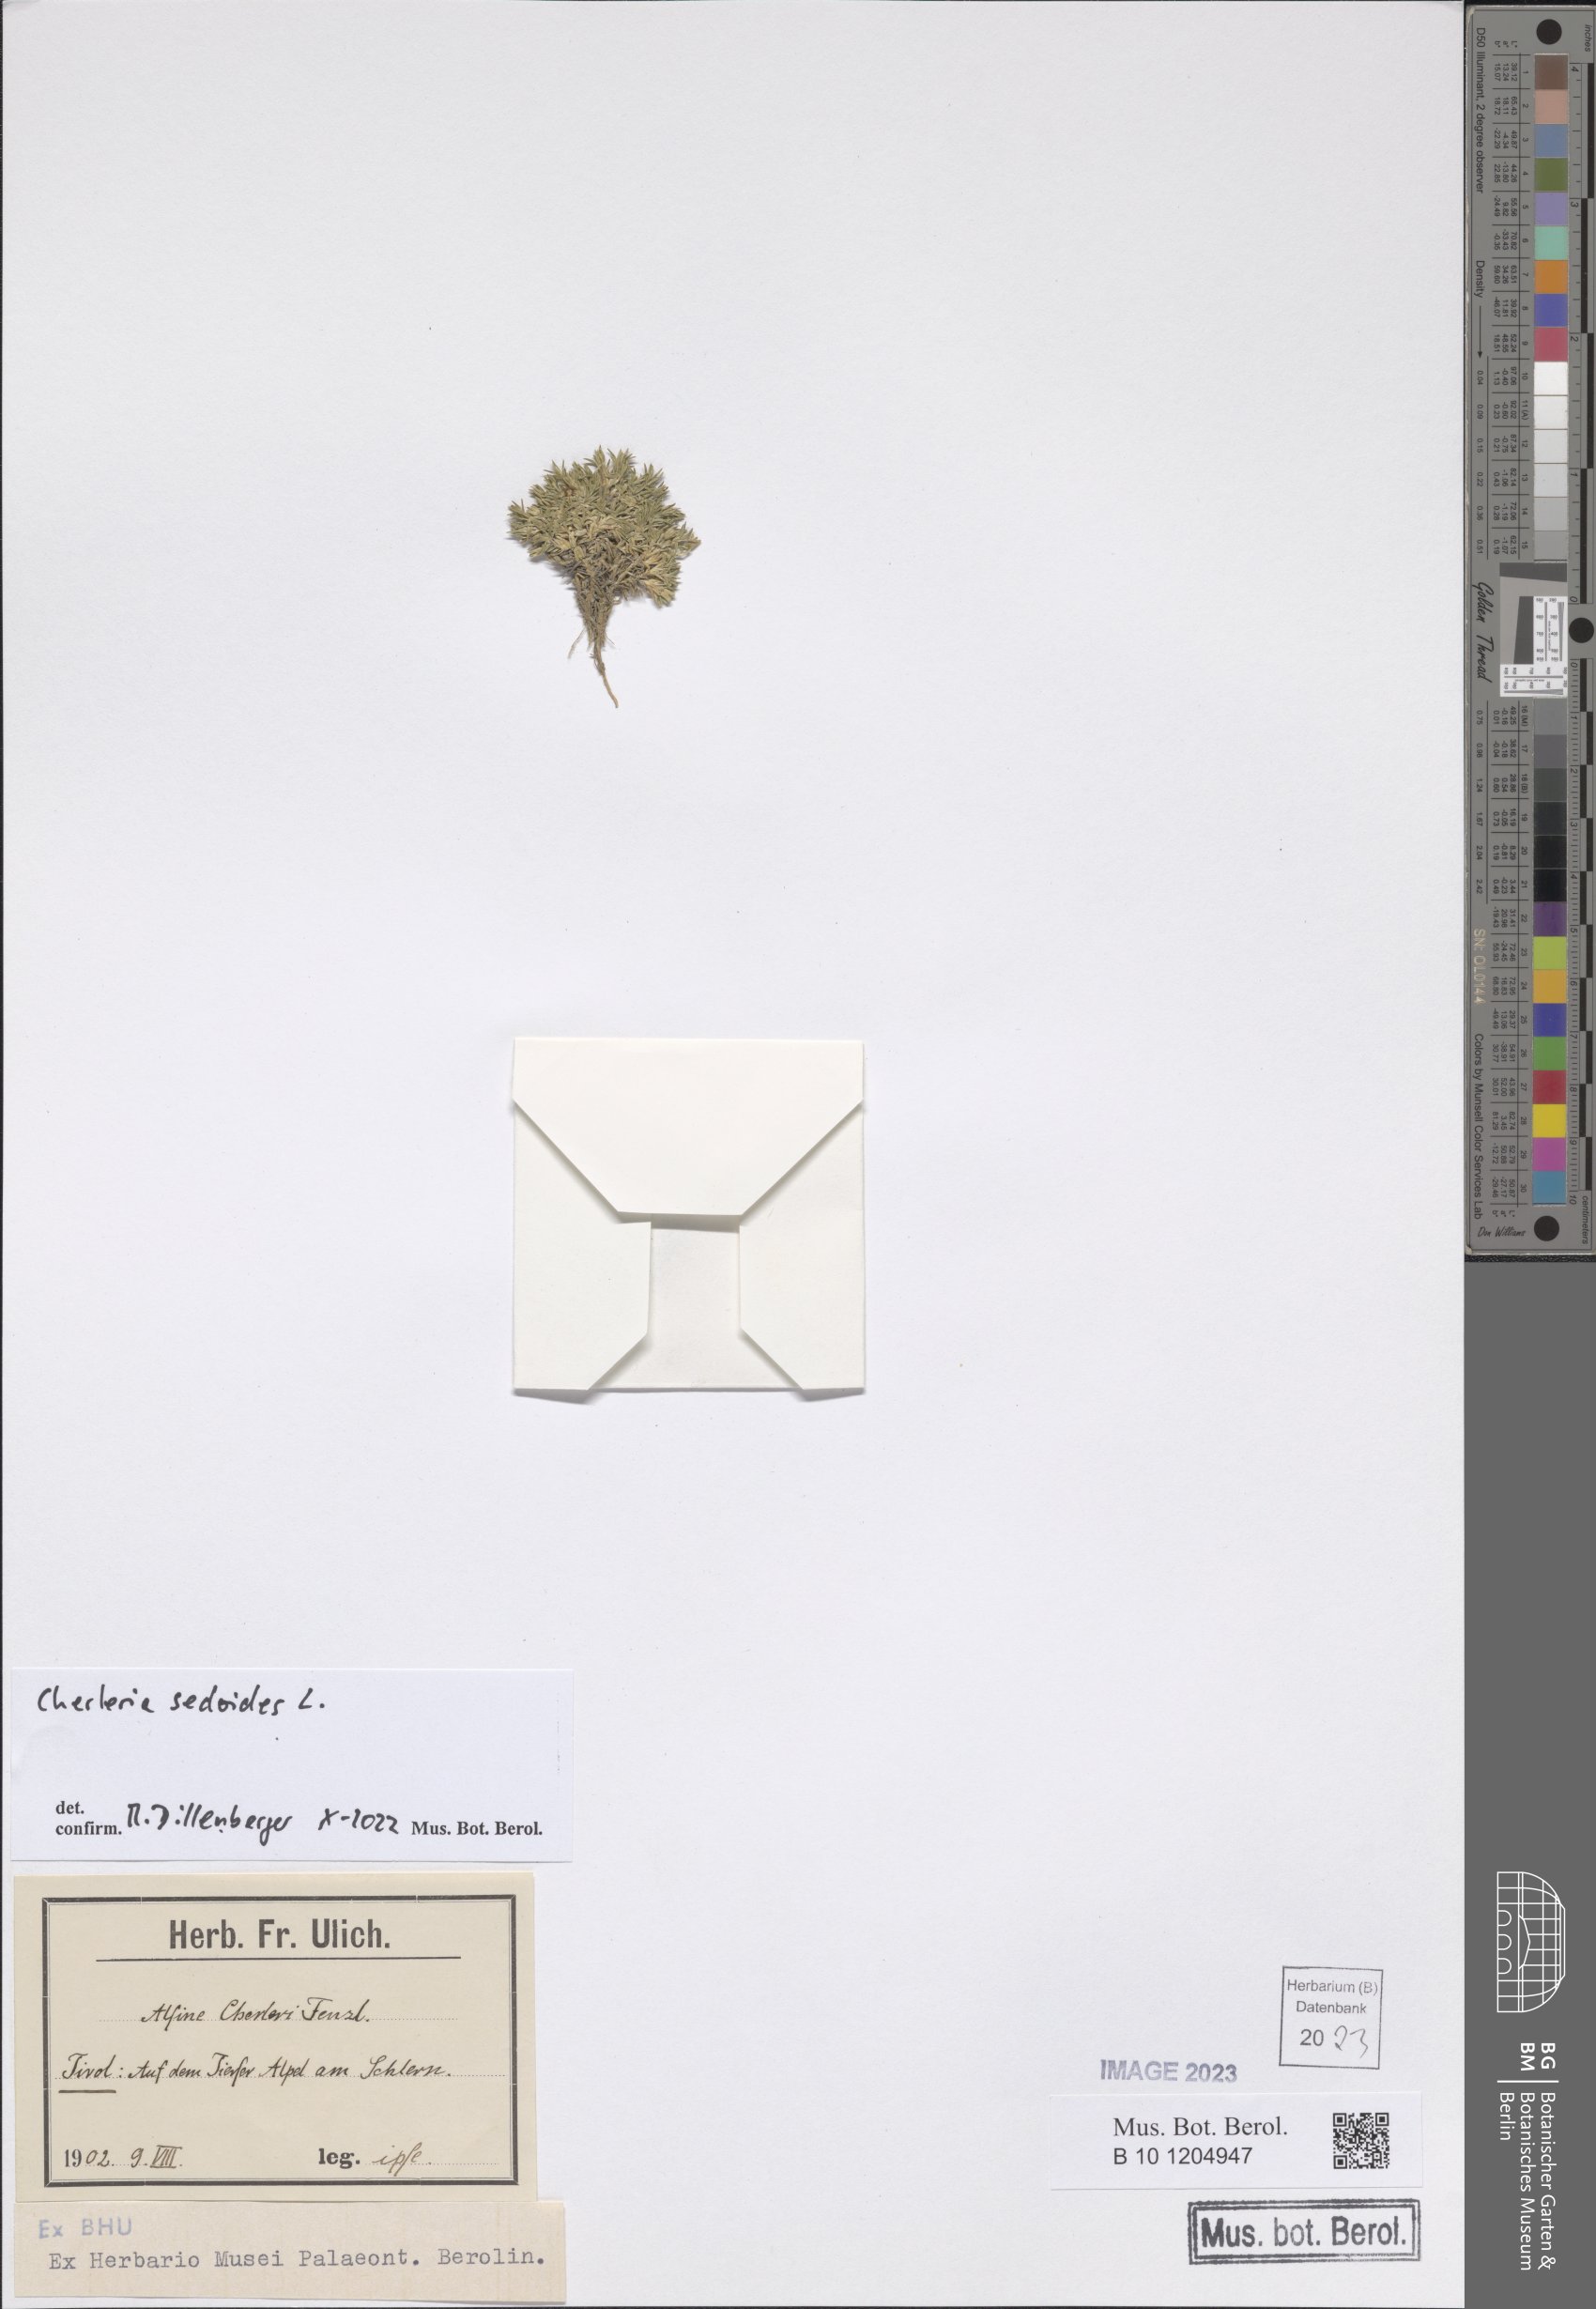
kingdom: Plantae
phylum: Tracheophyta
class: Magnoliopsida
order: Caryophyllales
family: Caryophyllaceae
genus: Cherleria
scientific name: Cherleria sedoides
